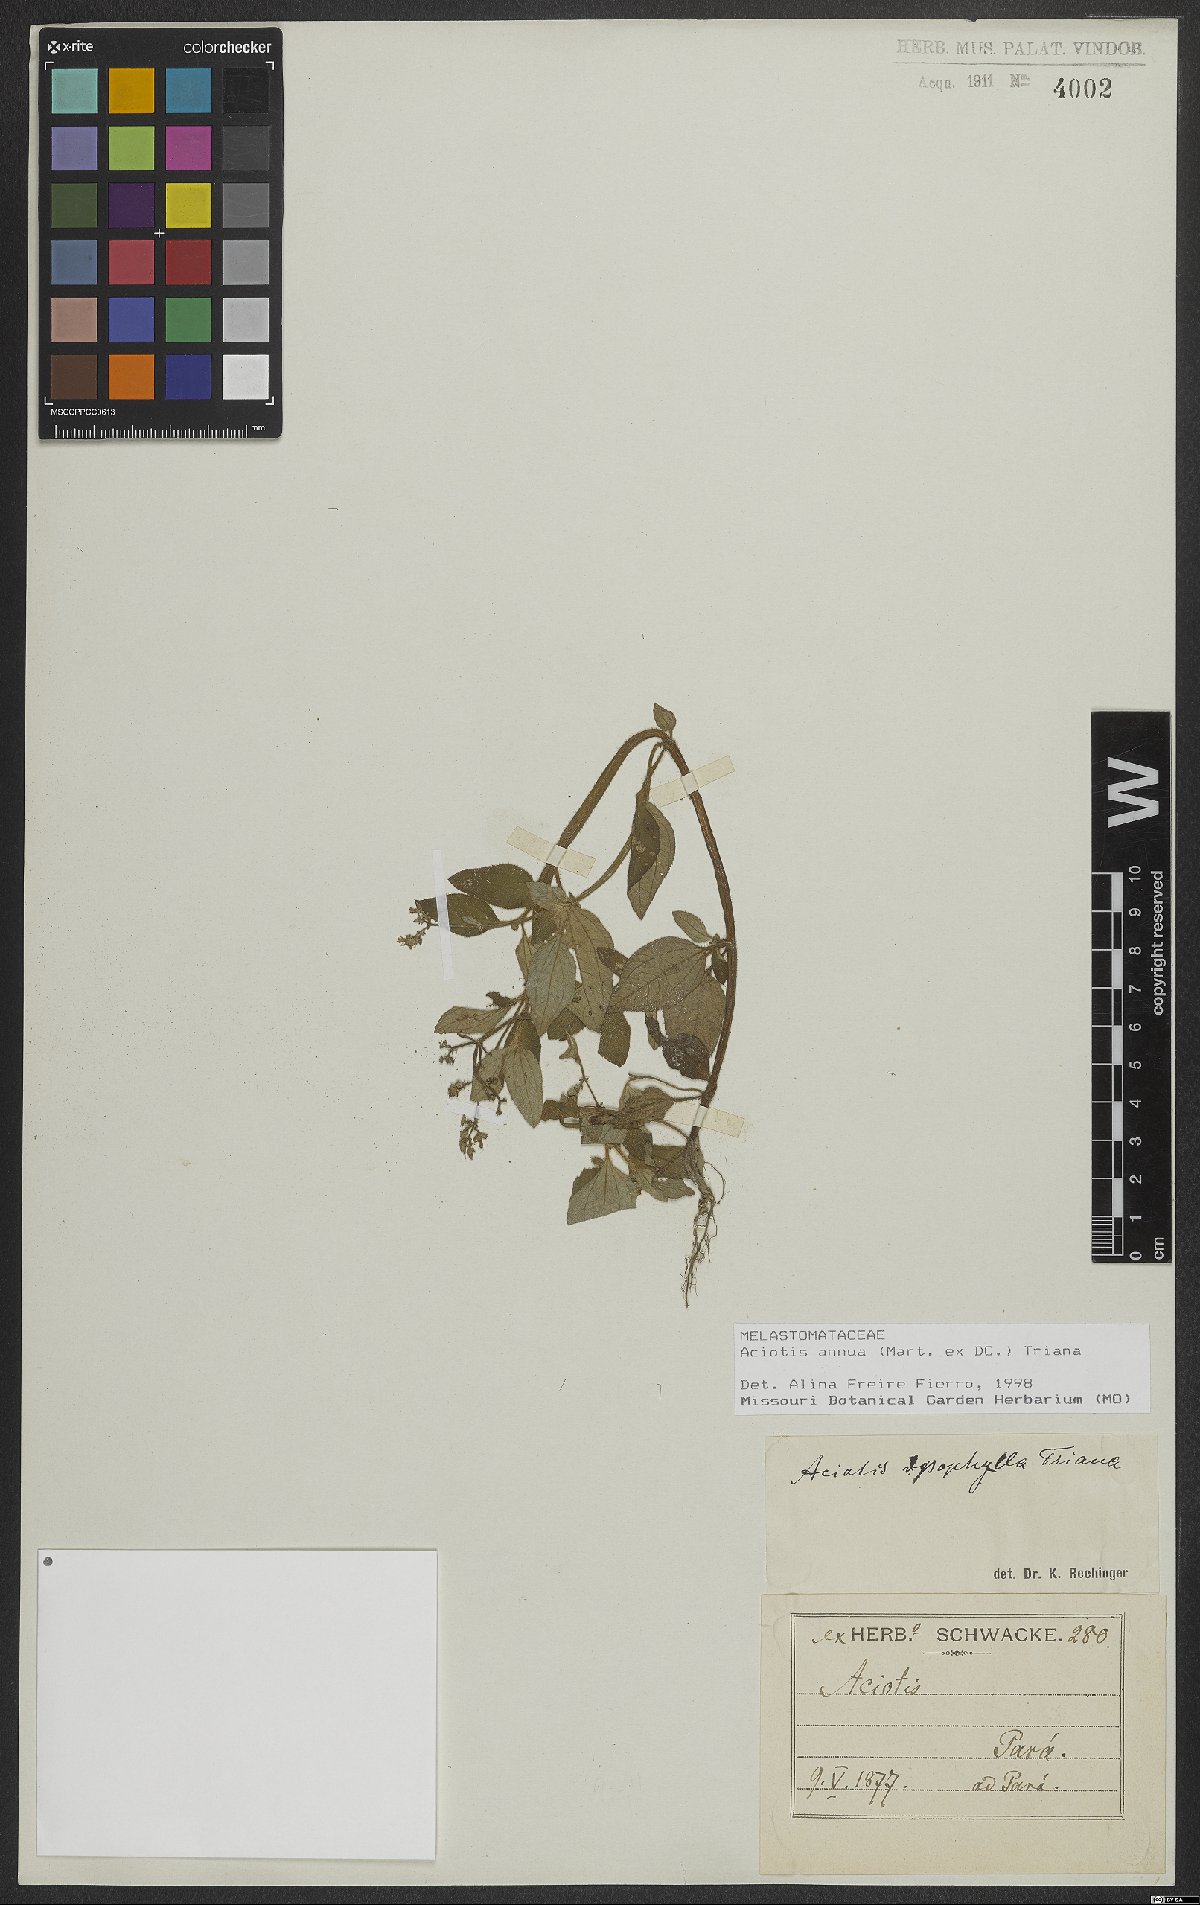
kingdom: Plantae
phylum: Tracheophyta
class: Magnoliopsida
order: Myrtales
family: Melastomataceae
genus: Aciotis
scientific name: Aciotis annua
